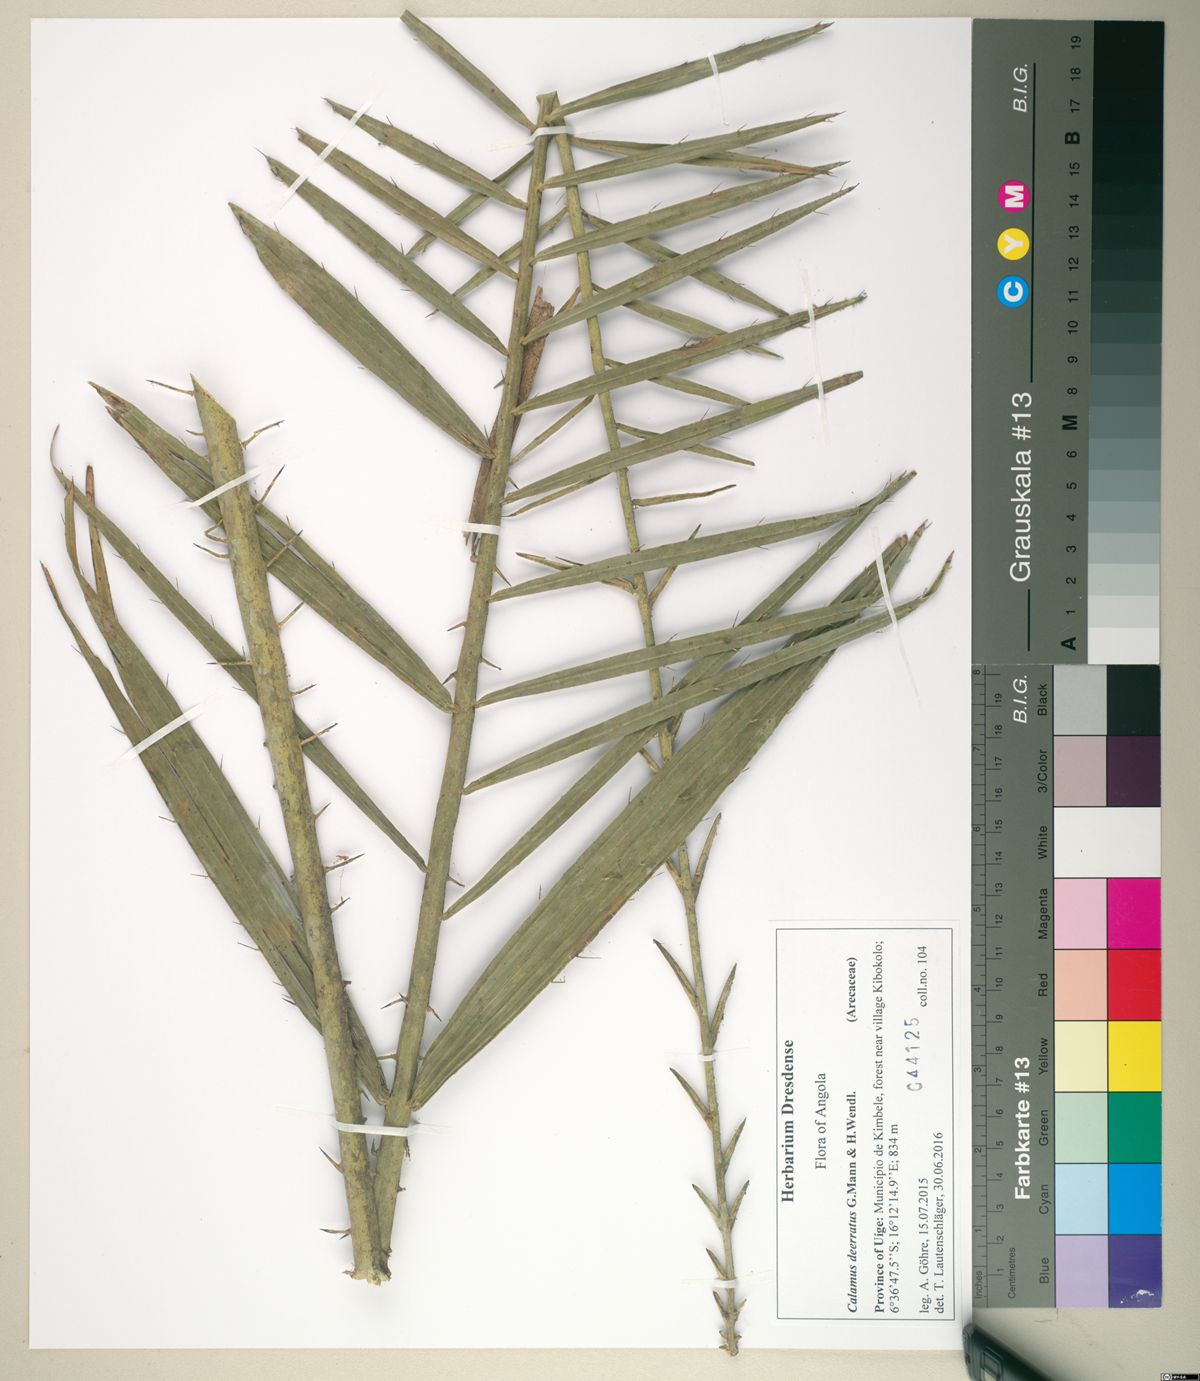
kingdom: Plantae
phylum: Tracheophyta
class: Liliopsida
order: Arecales
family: Arecaceae
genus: Calamus
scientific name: Calamus deerratus
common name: Rattan
